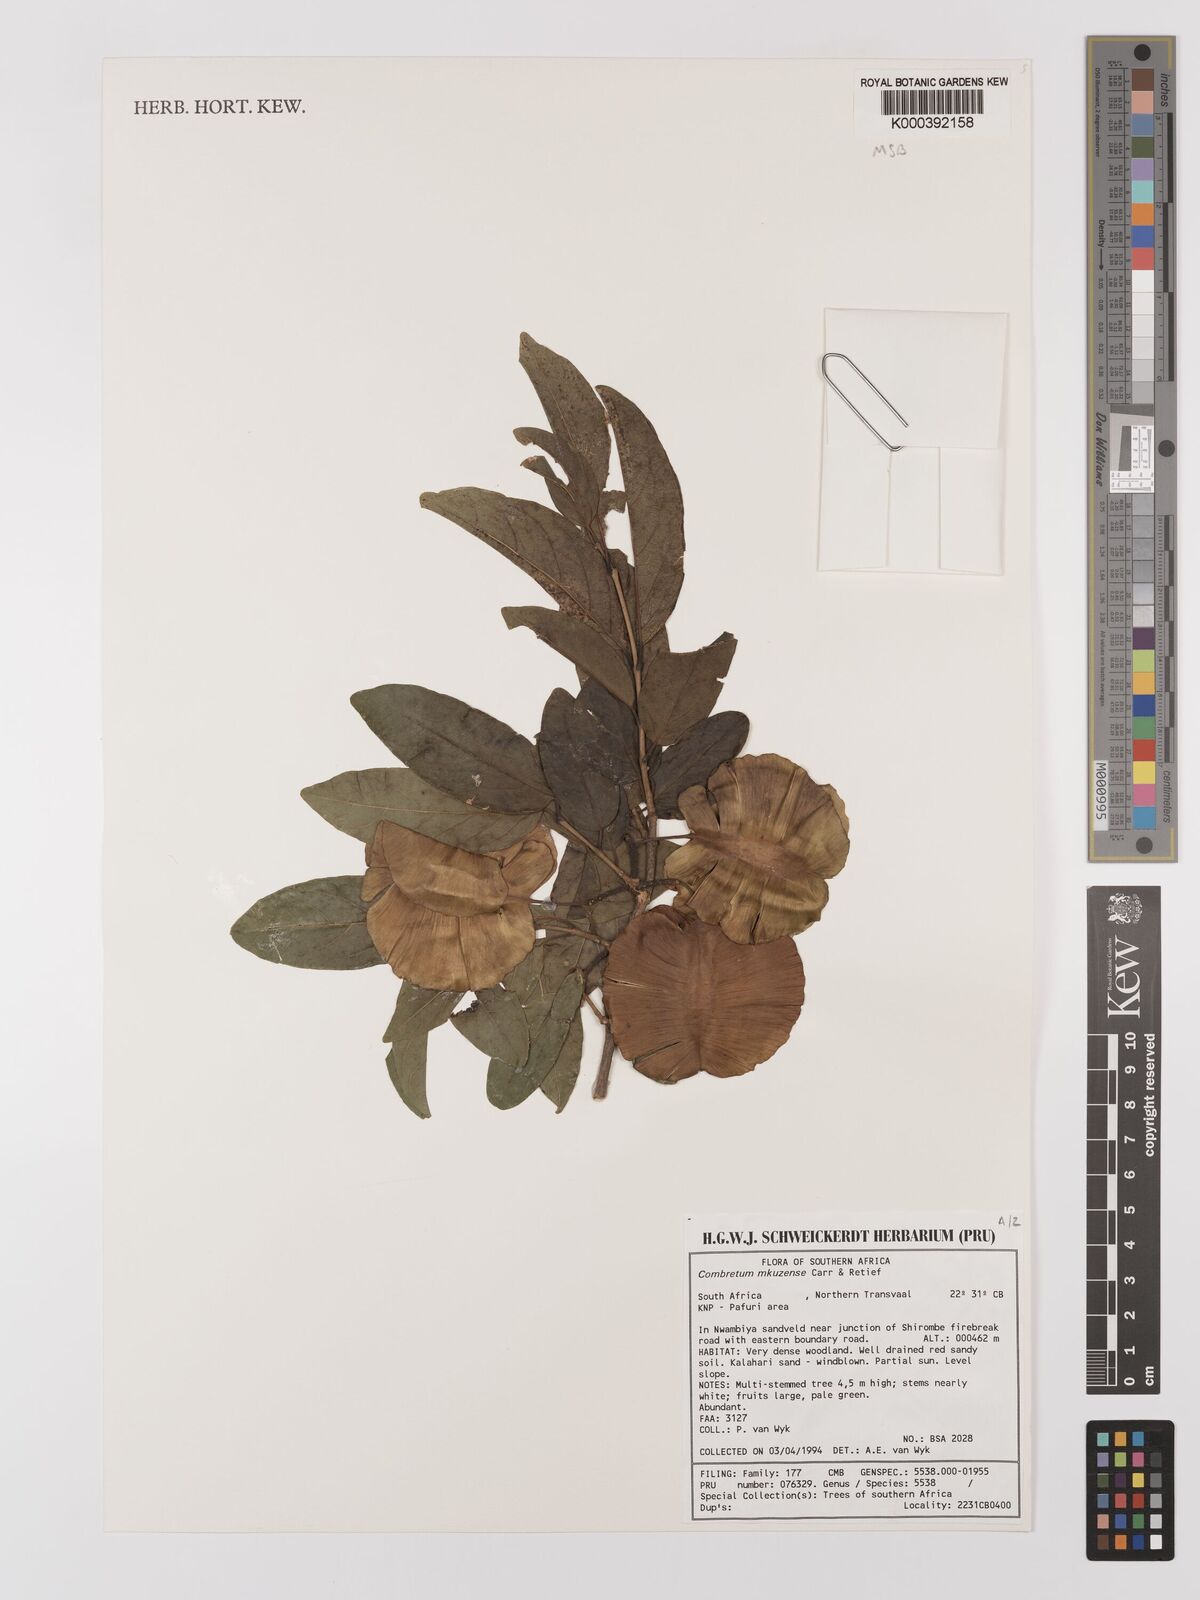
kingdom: Plantae
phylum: Tracheophyta
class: Magnoliopsida
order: Myrtales
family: Combretaceae
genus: Combretum
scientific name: Combretum mkuzense
